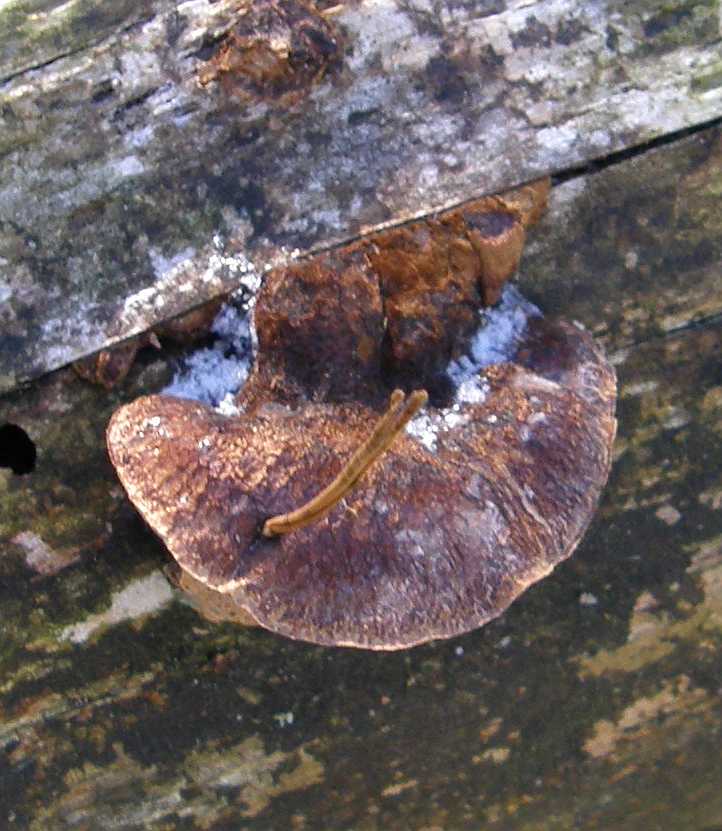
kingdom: Fungi
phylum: Basidiomycota
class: Agaricomycetes
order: Polyporales
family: Ischnodermataceae
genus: Ischnoderma
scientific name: Ischnoderma benzoinum
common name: gran-tjæreporesvamp
